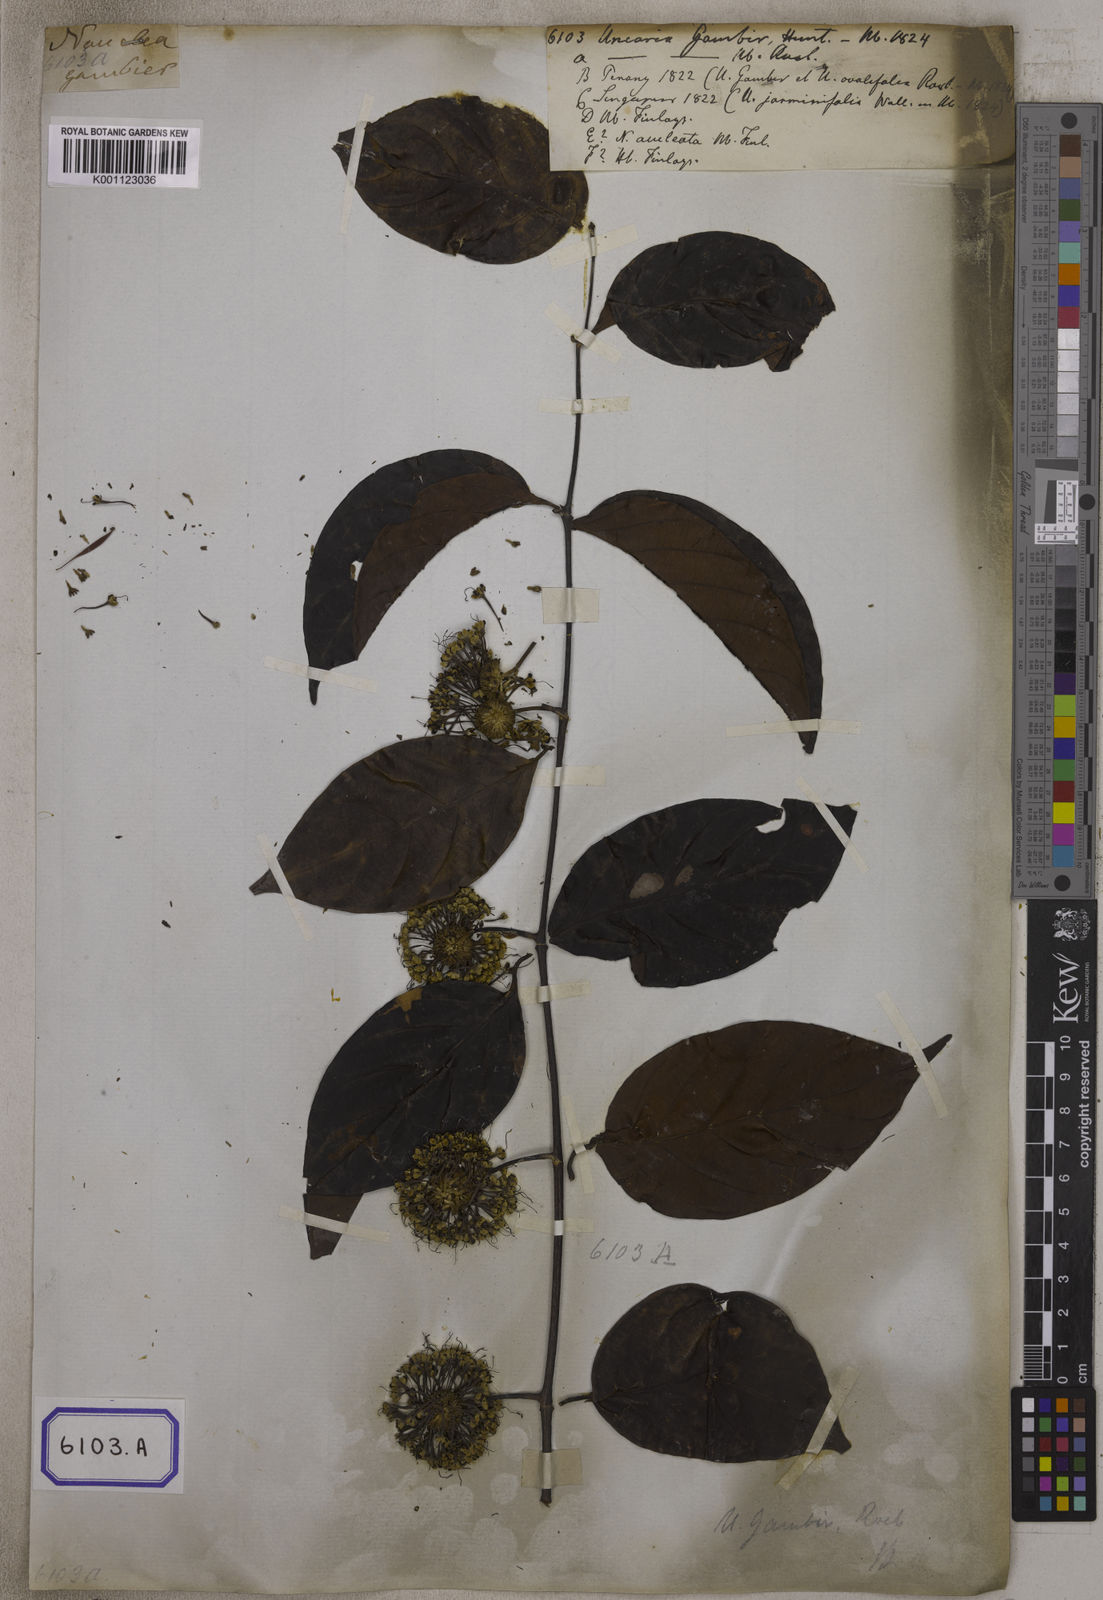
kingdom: Plantae
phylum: Tracheophyta
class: Magnoliopsida
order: Gentianales
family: Rubiaceae
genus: Uncaria
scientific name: Uncaria gambir
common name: Pale catechu
